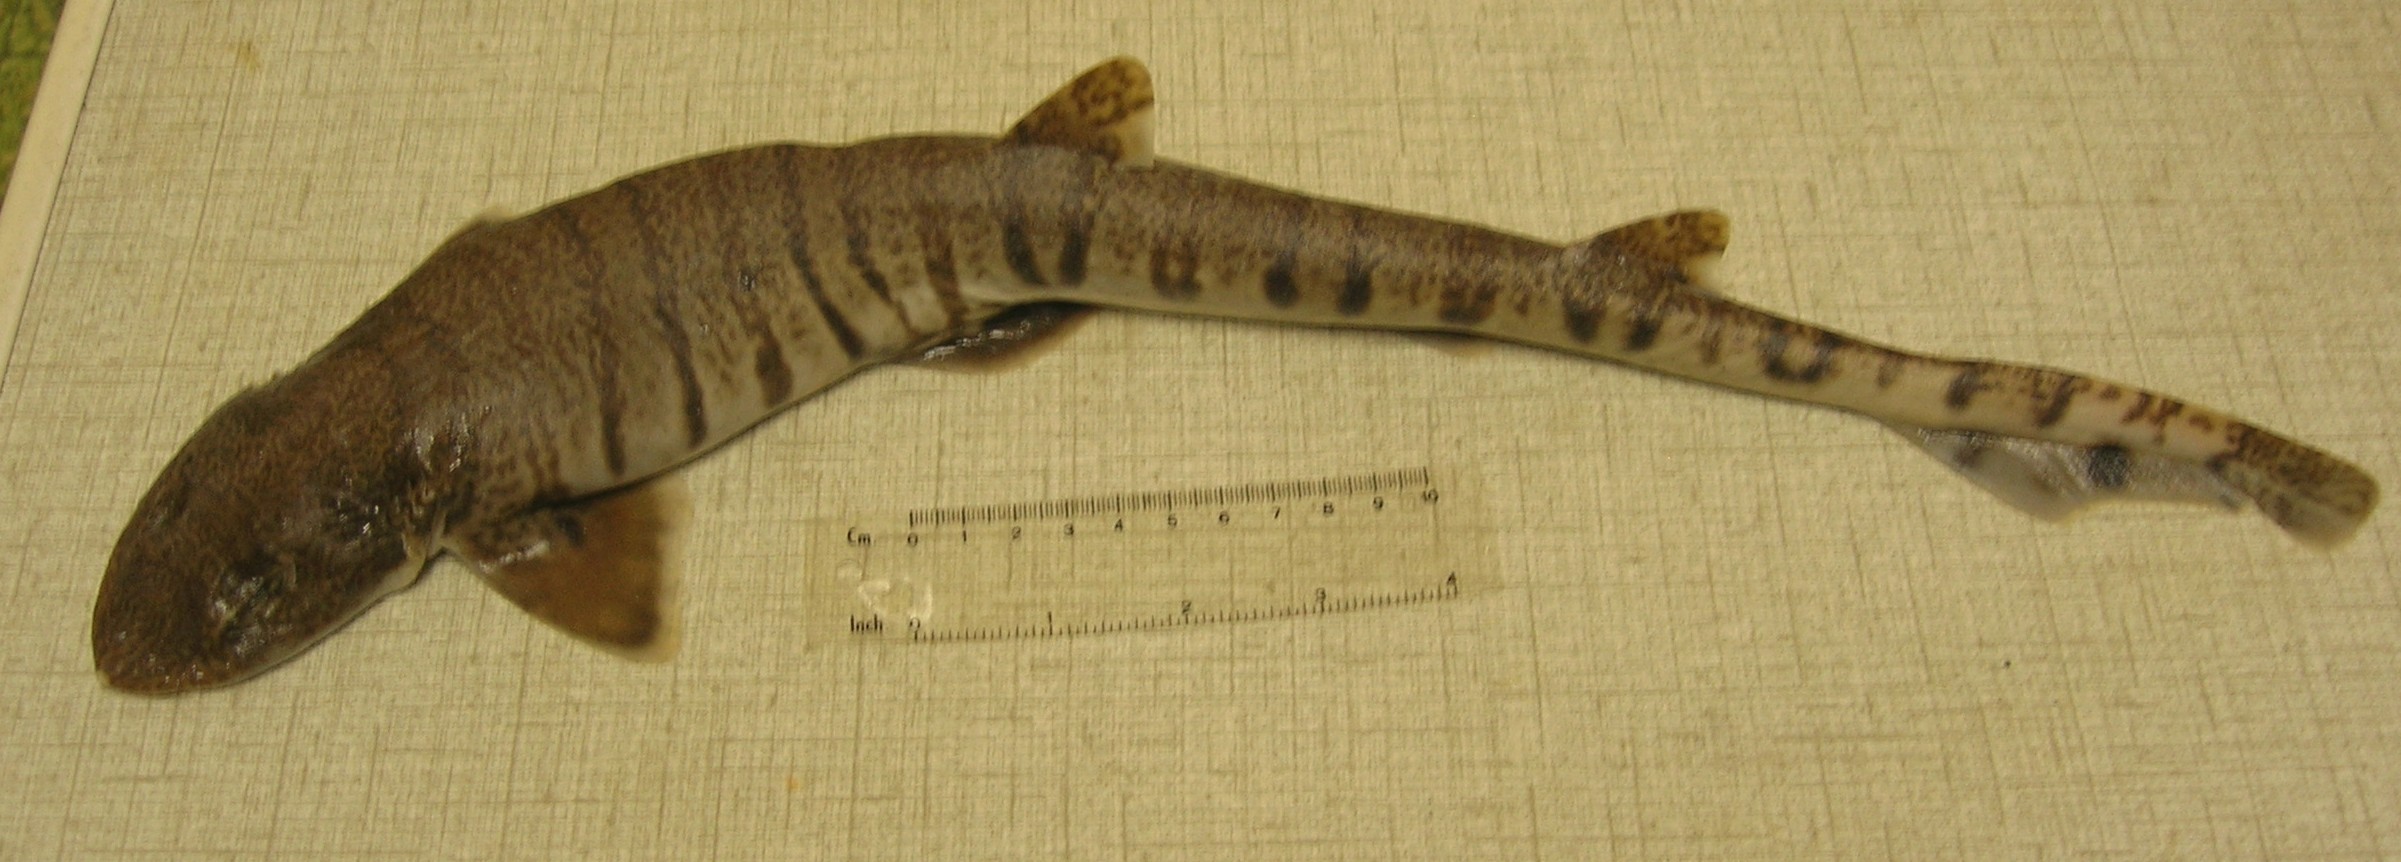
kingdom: Animalia
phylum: Chordata
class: Elasmobranchii
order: Carcharhiniformes
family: Scyliorhinidae
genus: Halaelurus
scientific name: Halaelurus lineatus
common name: Lined catshark
